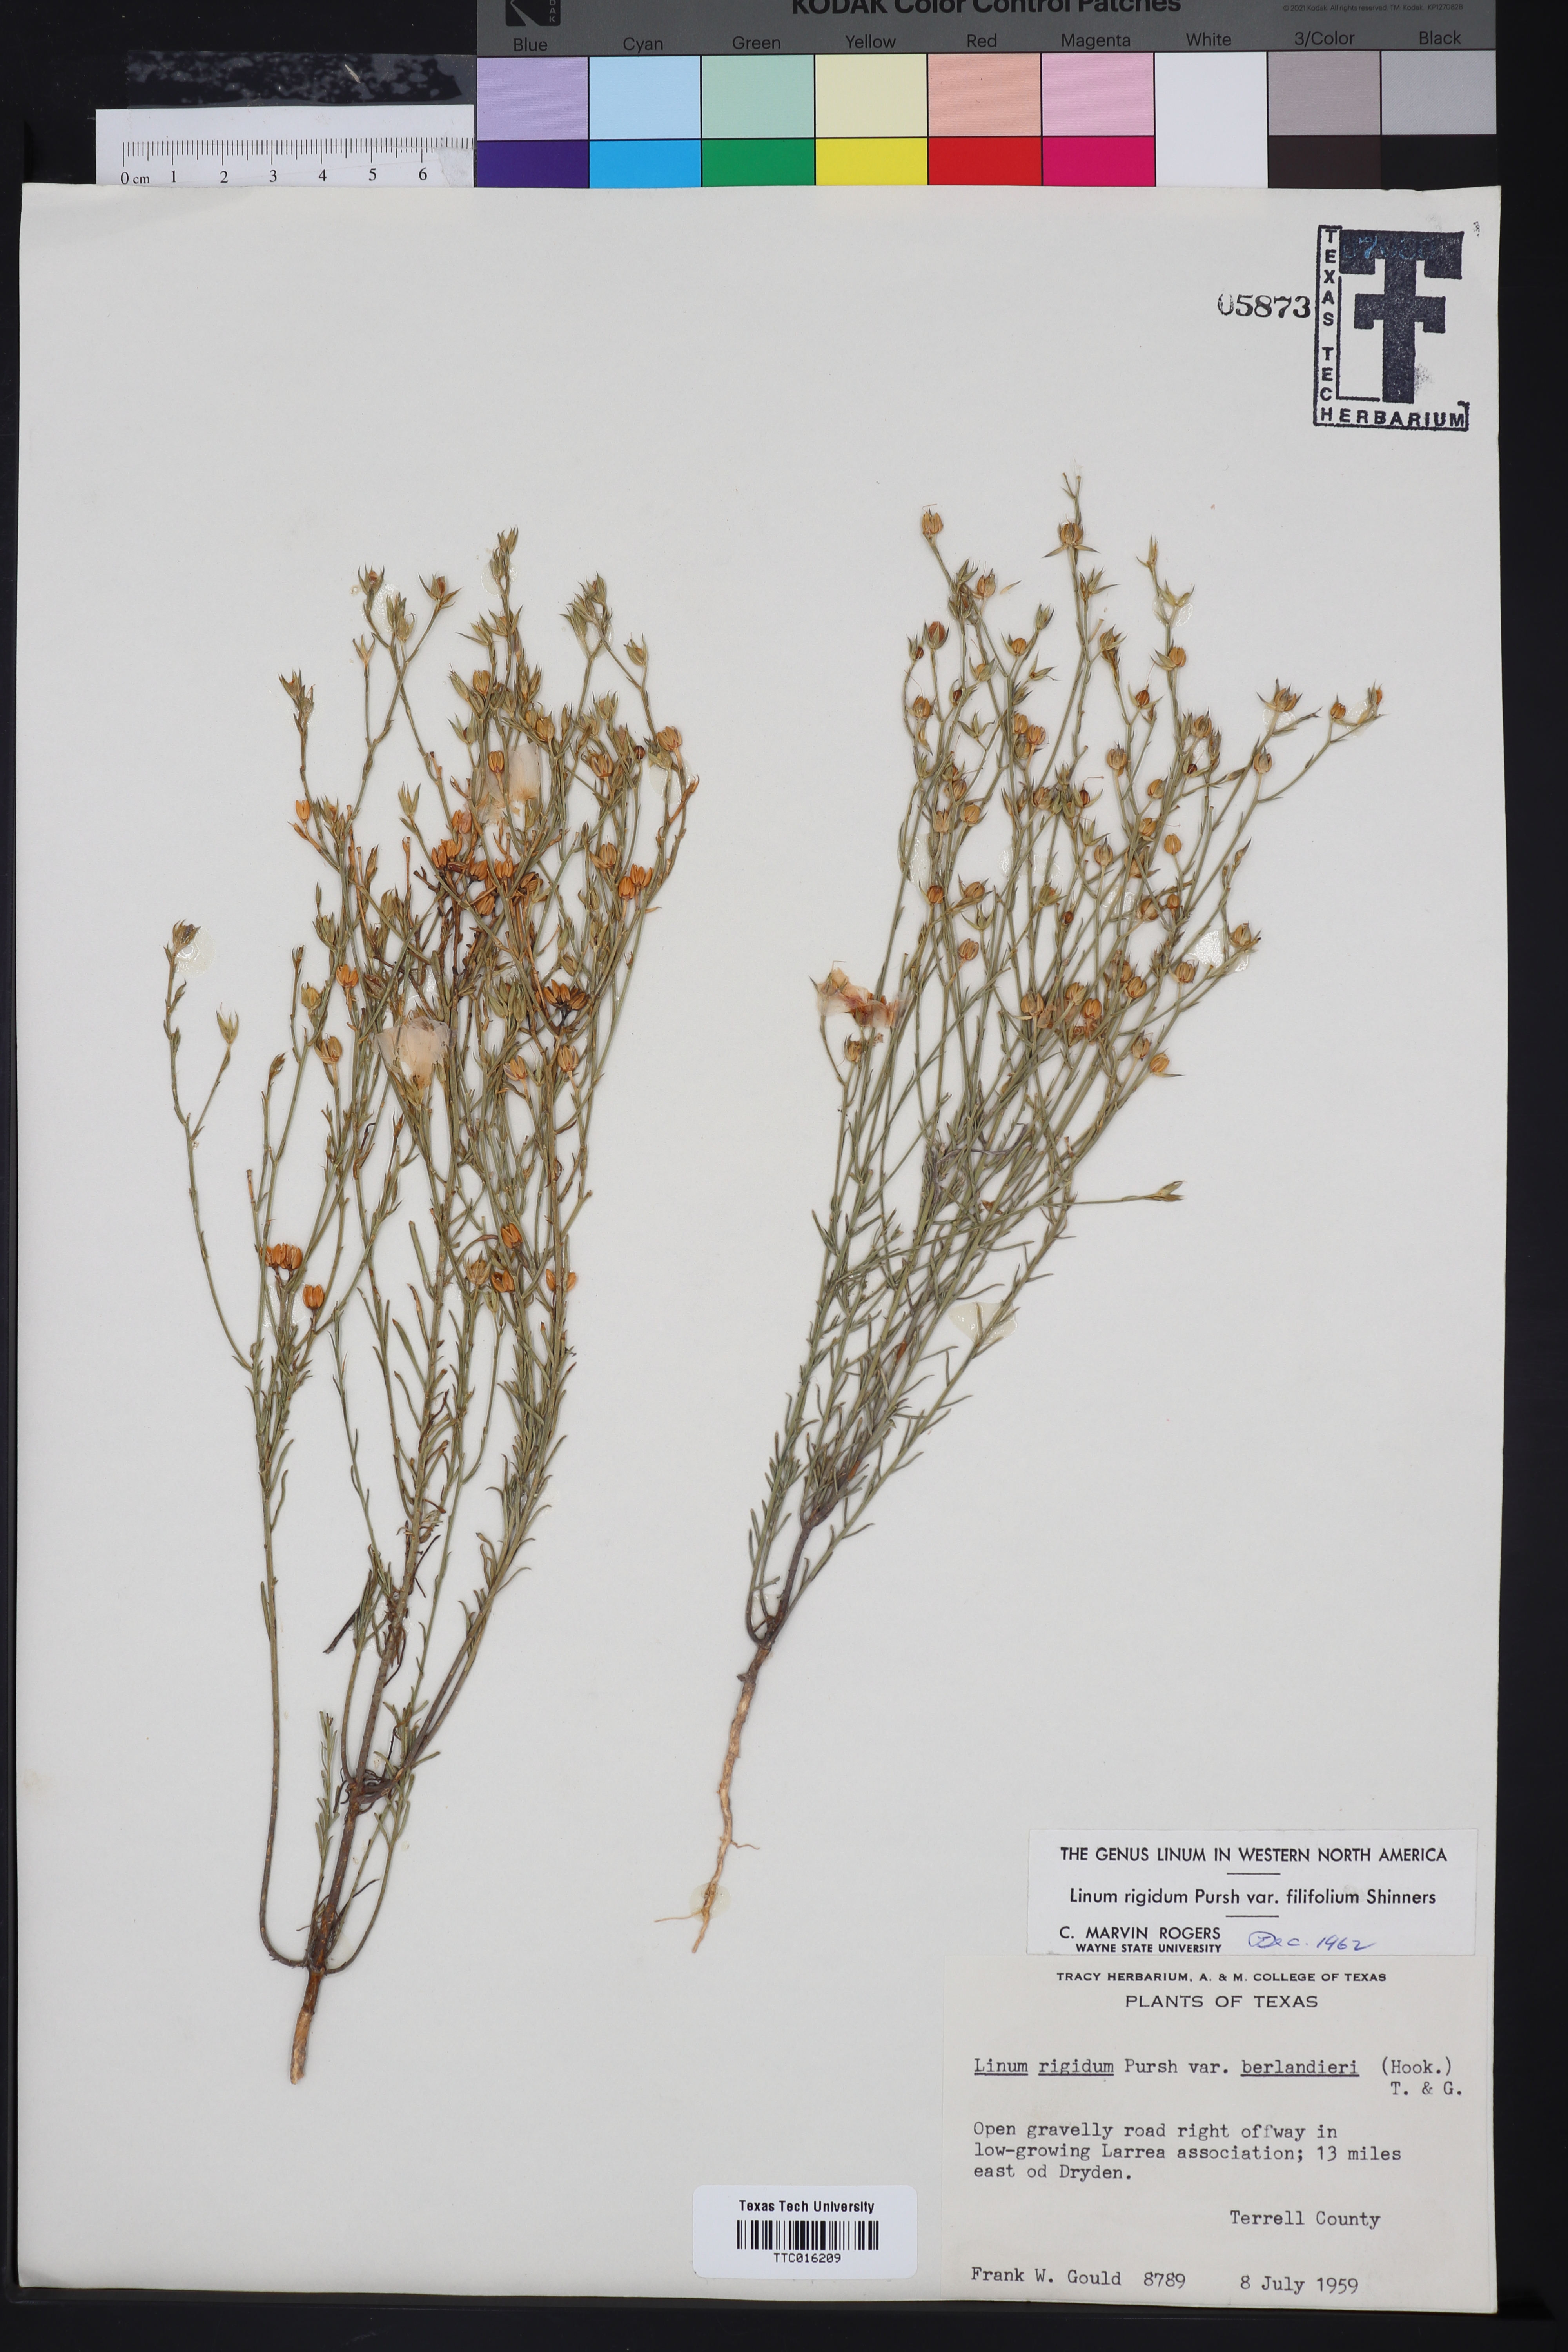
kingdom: Plantae
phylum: Tracheophyta
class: Magnoliopsida
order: Malpighiales
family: Linaceae
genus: Linum
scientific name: Linum berlandieri
